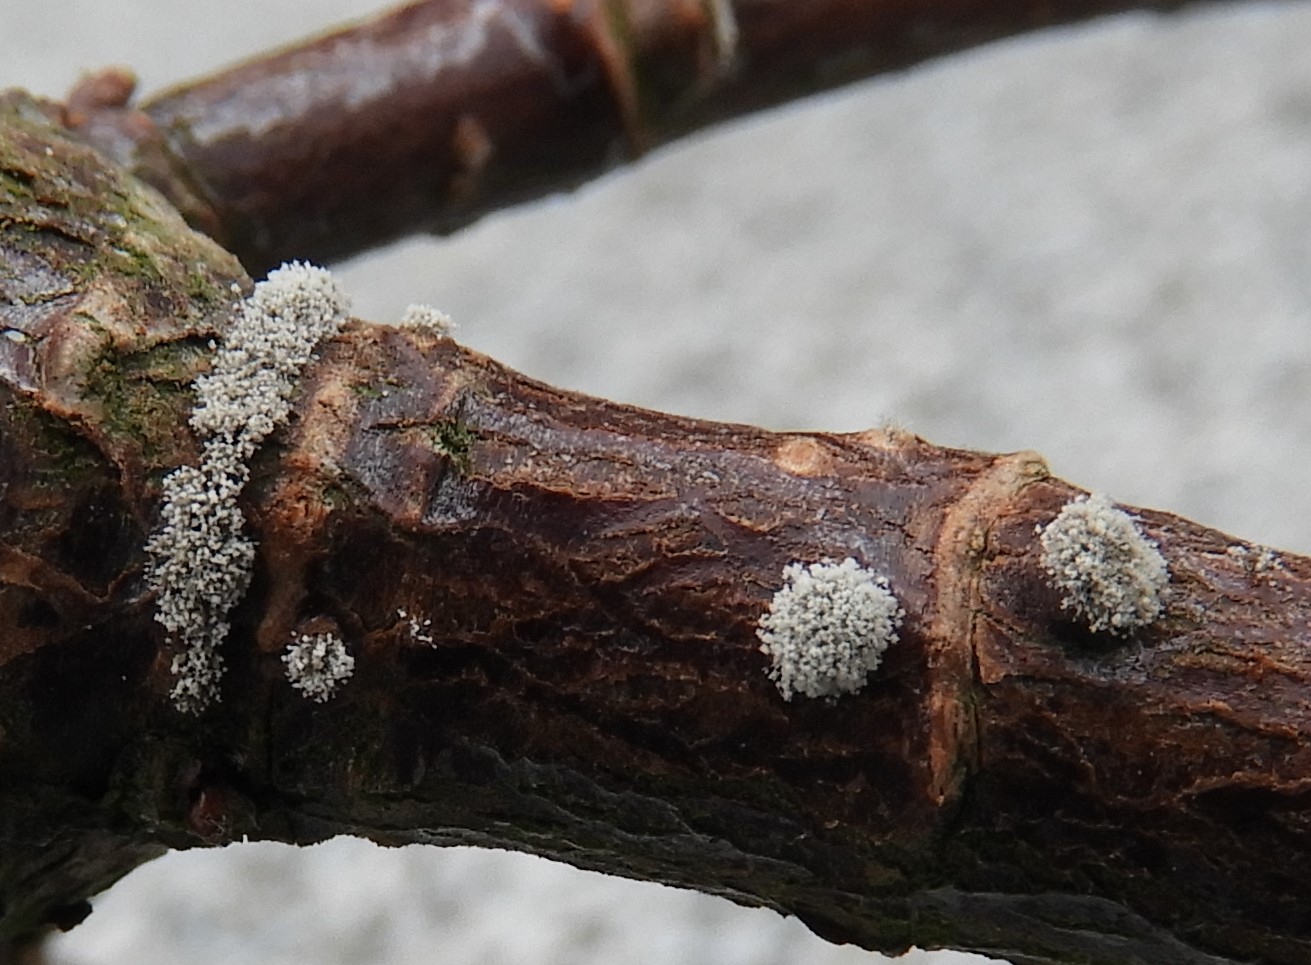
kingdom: Fungi
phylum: Ascomycota
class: Leotiomycetes
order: Helotiales
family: Sclerotiniaceae
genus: Botrytis
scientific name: Botrytis
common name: gråskimmel
